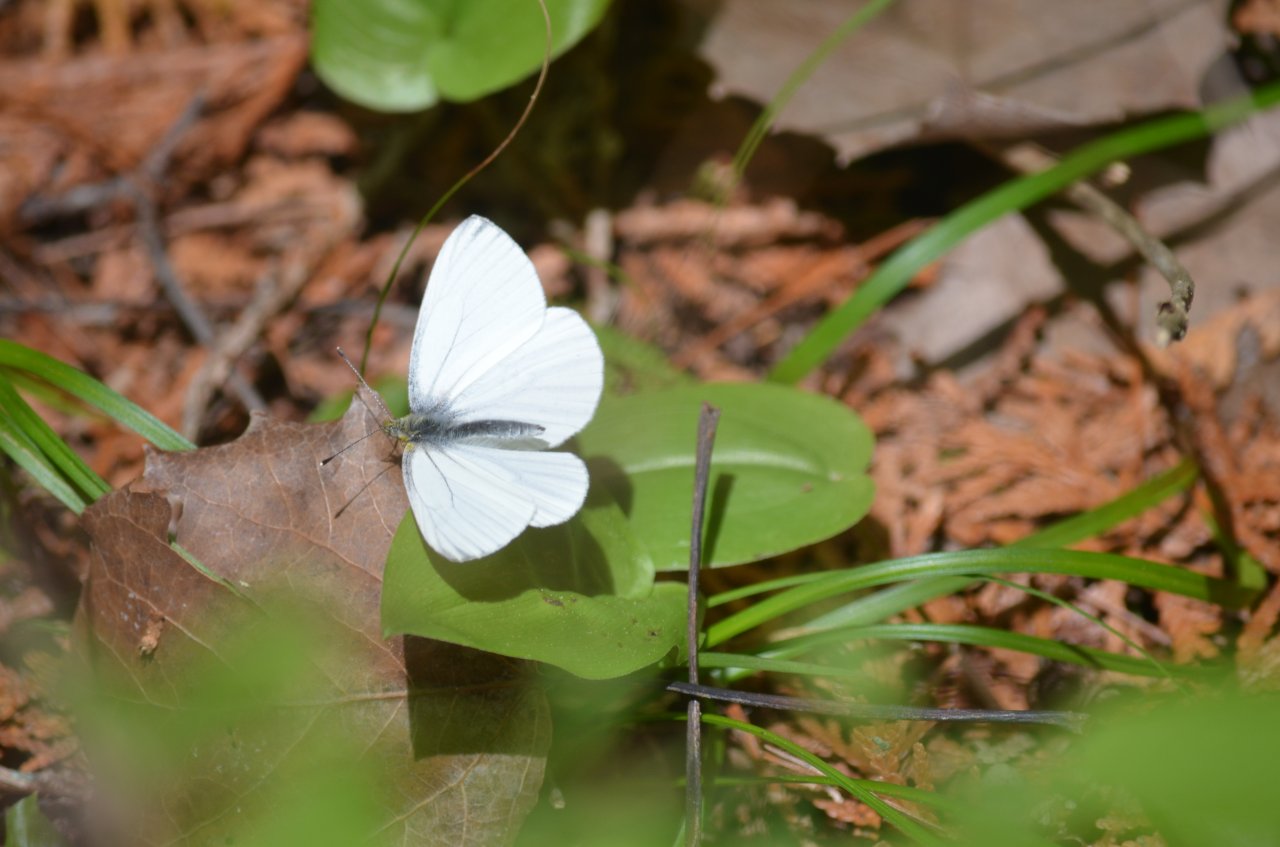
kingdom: Animalia
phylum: Arthropoda
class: Insecta
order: Lepidoptera
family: Pieridae
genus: Pieris
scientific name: Pieris oleracea
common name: Mustard White
